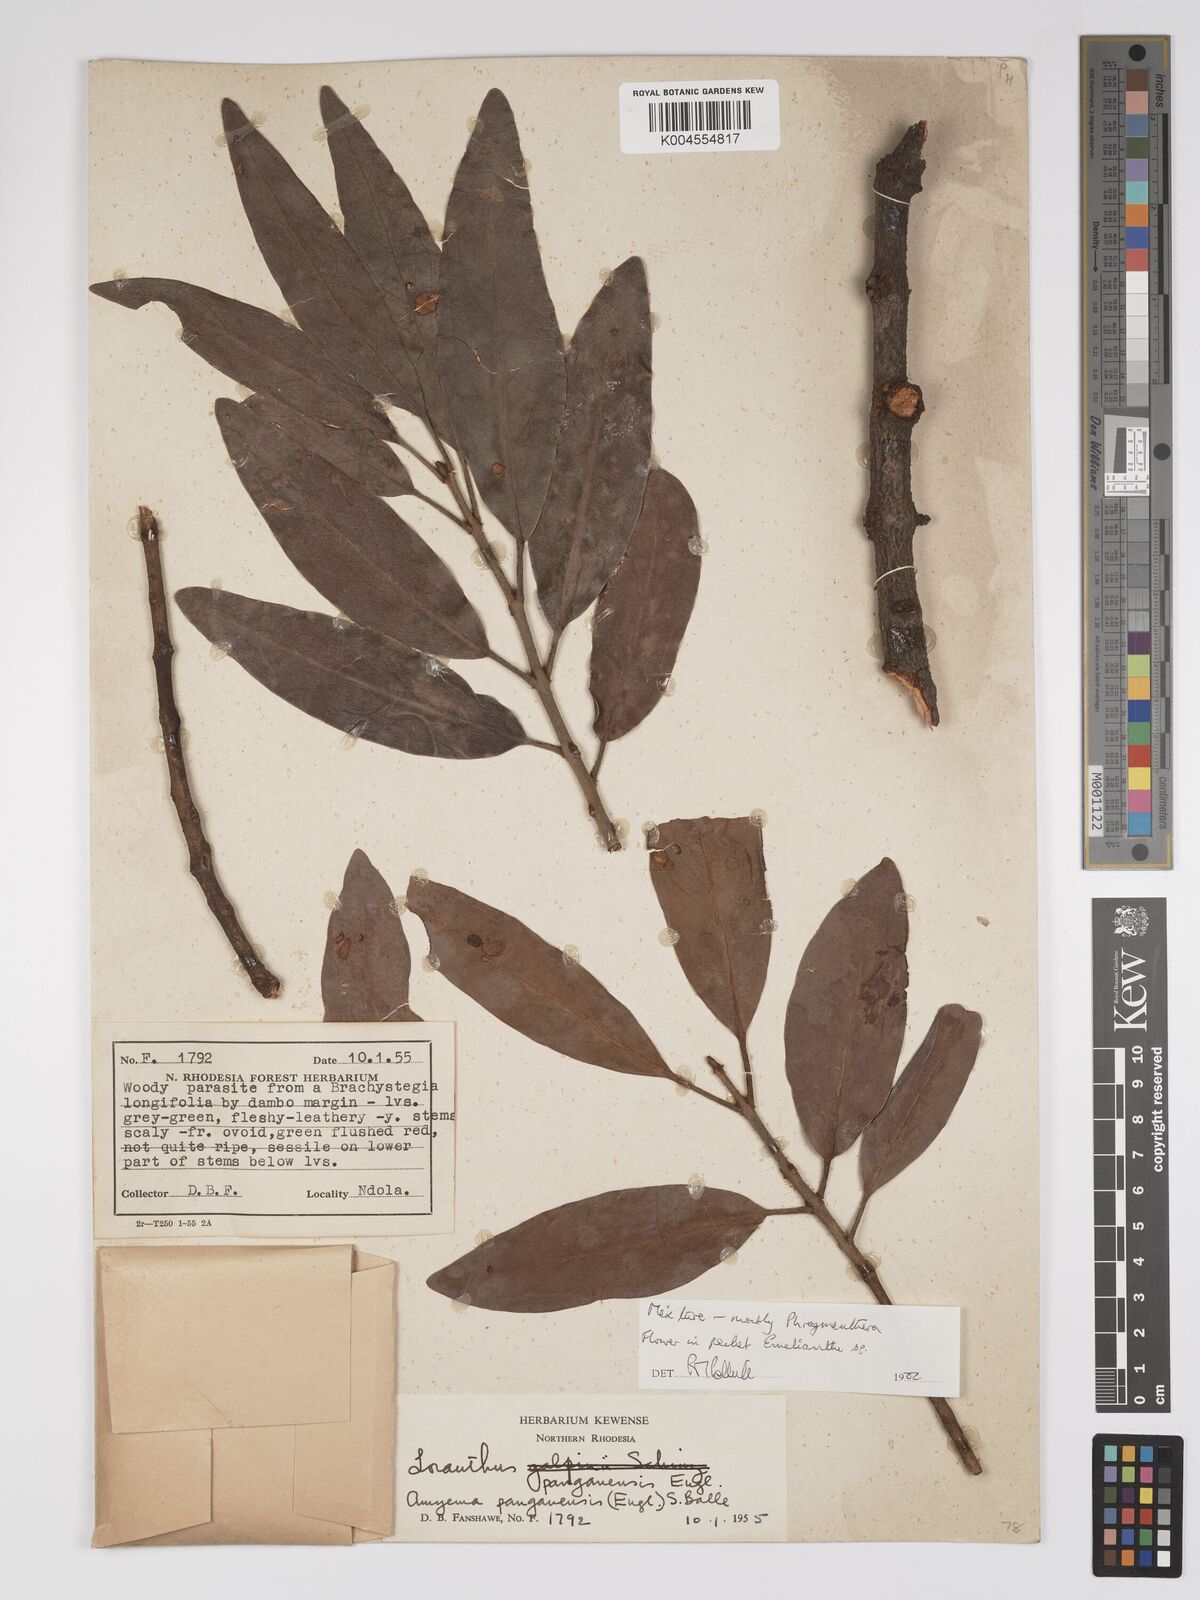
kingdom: Plantae
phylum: Tracheophyta
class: Magnoliopsida
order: Santalales
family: Loranthaceae
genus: Phragmanthera
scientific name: Phragmanthera
